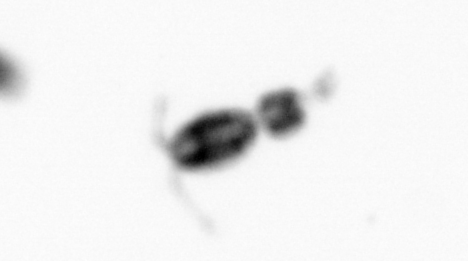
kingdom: Animalia
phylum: Annelida
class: Polychaeta
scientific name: Polychaeta
